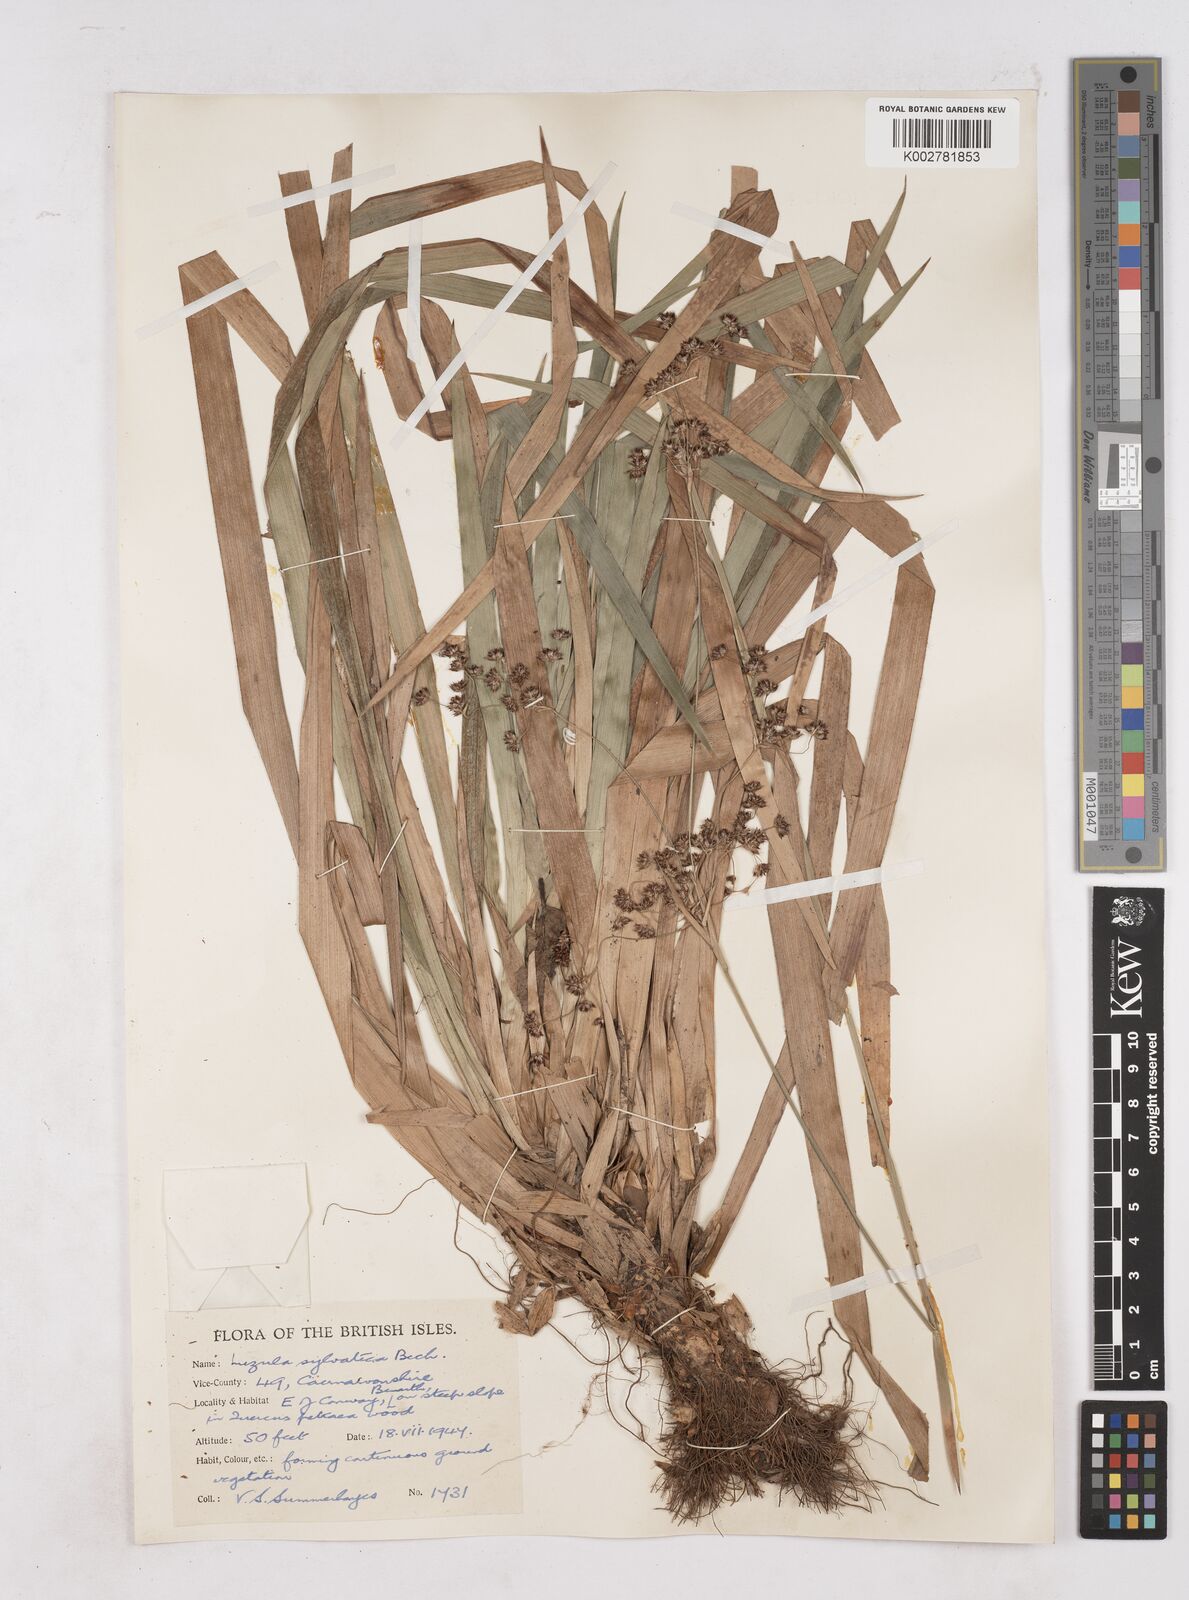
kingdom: Plantae
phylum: Tracheophyta
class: Liliopsida
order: Poales
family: Juncaceae
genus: Luzula
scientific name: Luzula sylvatica
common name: Great wood-rush
